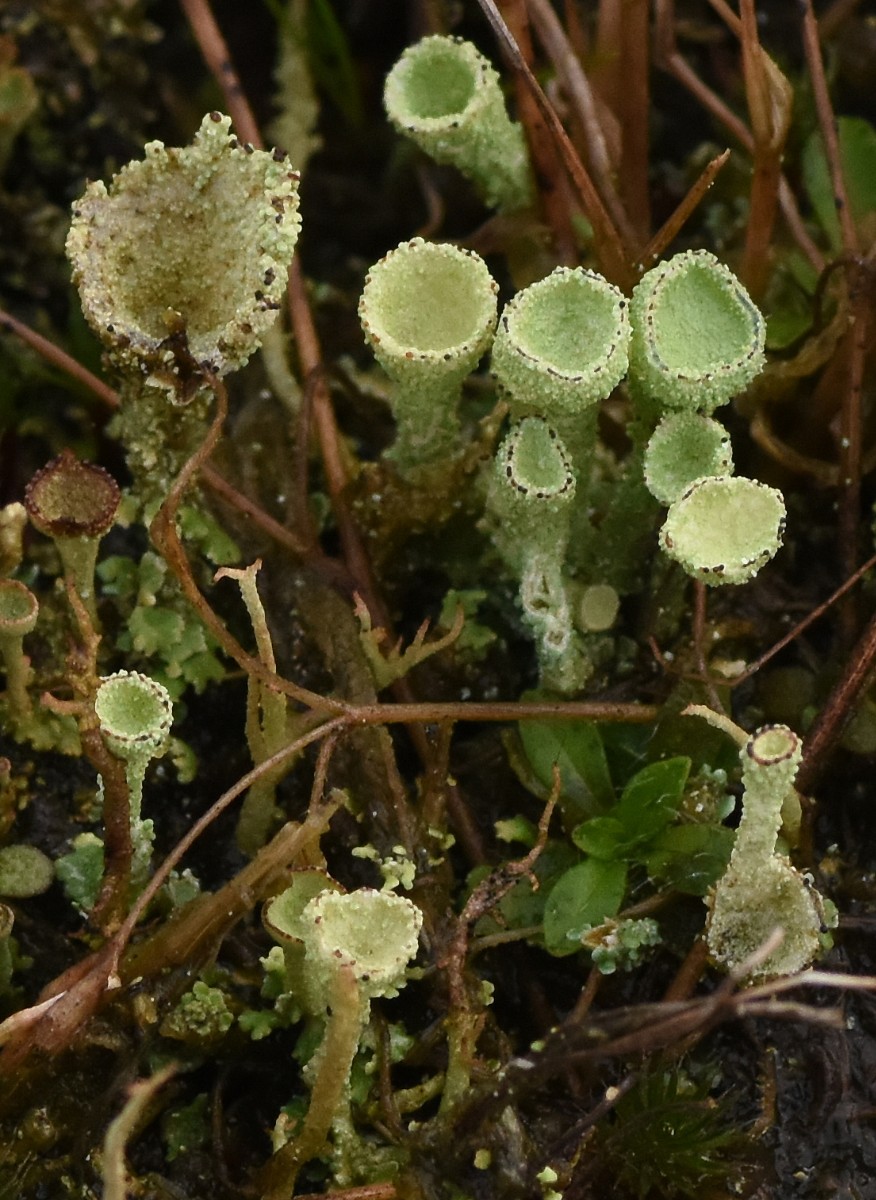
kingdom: Fungi
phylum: Ascomycota
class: Lecanoromycetes
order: Lecanorales
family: Cladoniaceae
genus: Cladonia
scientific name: Cladonia
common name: brungrøn bægerlav
